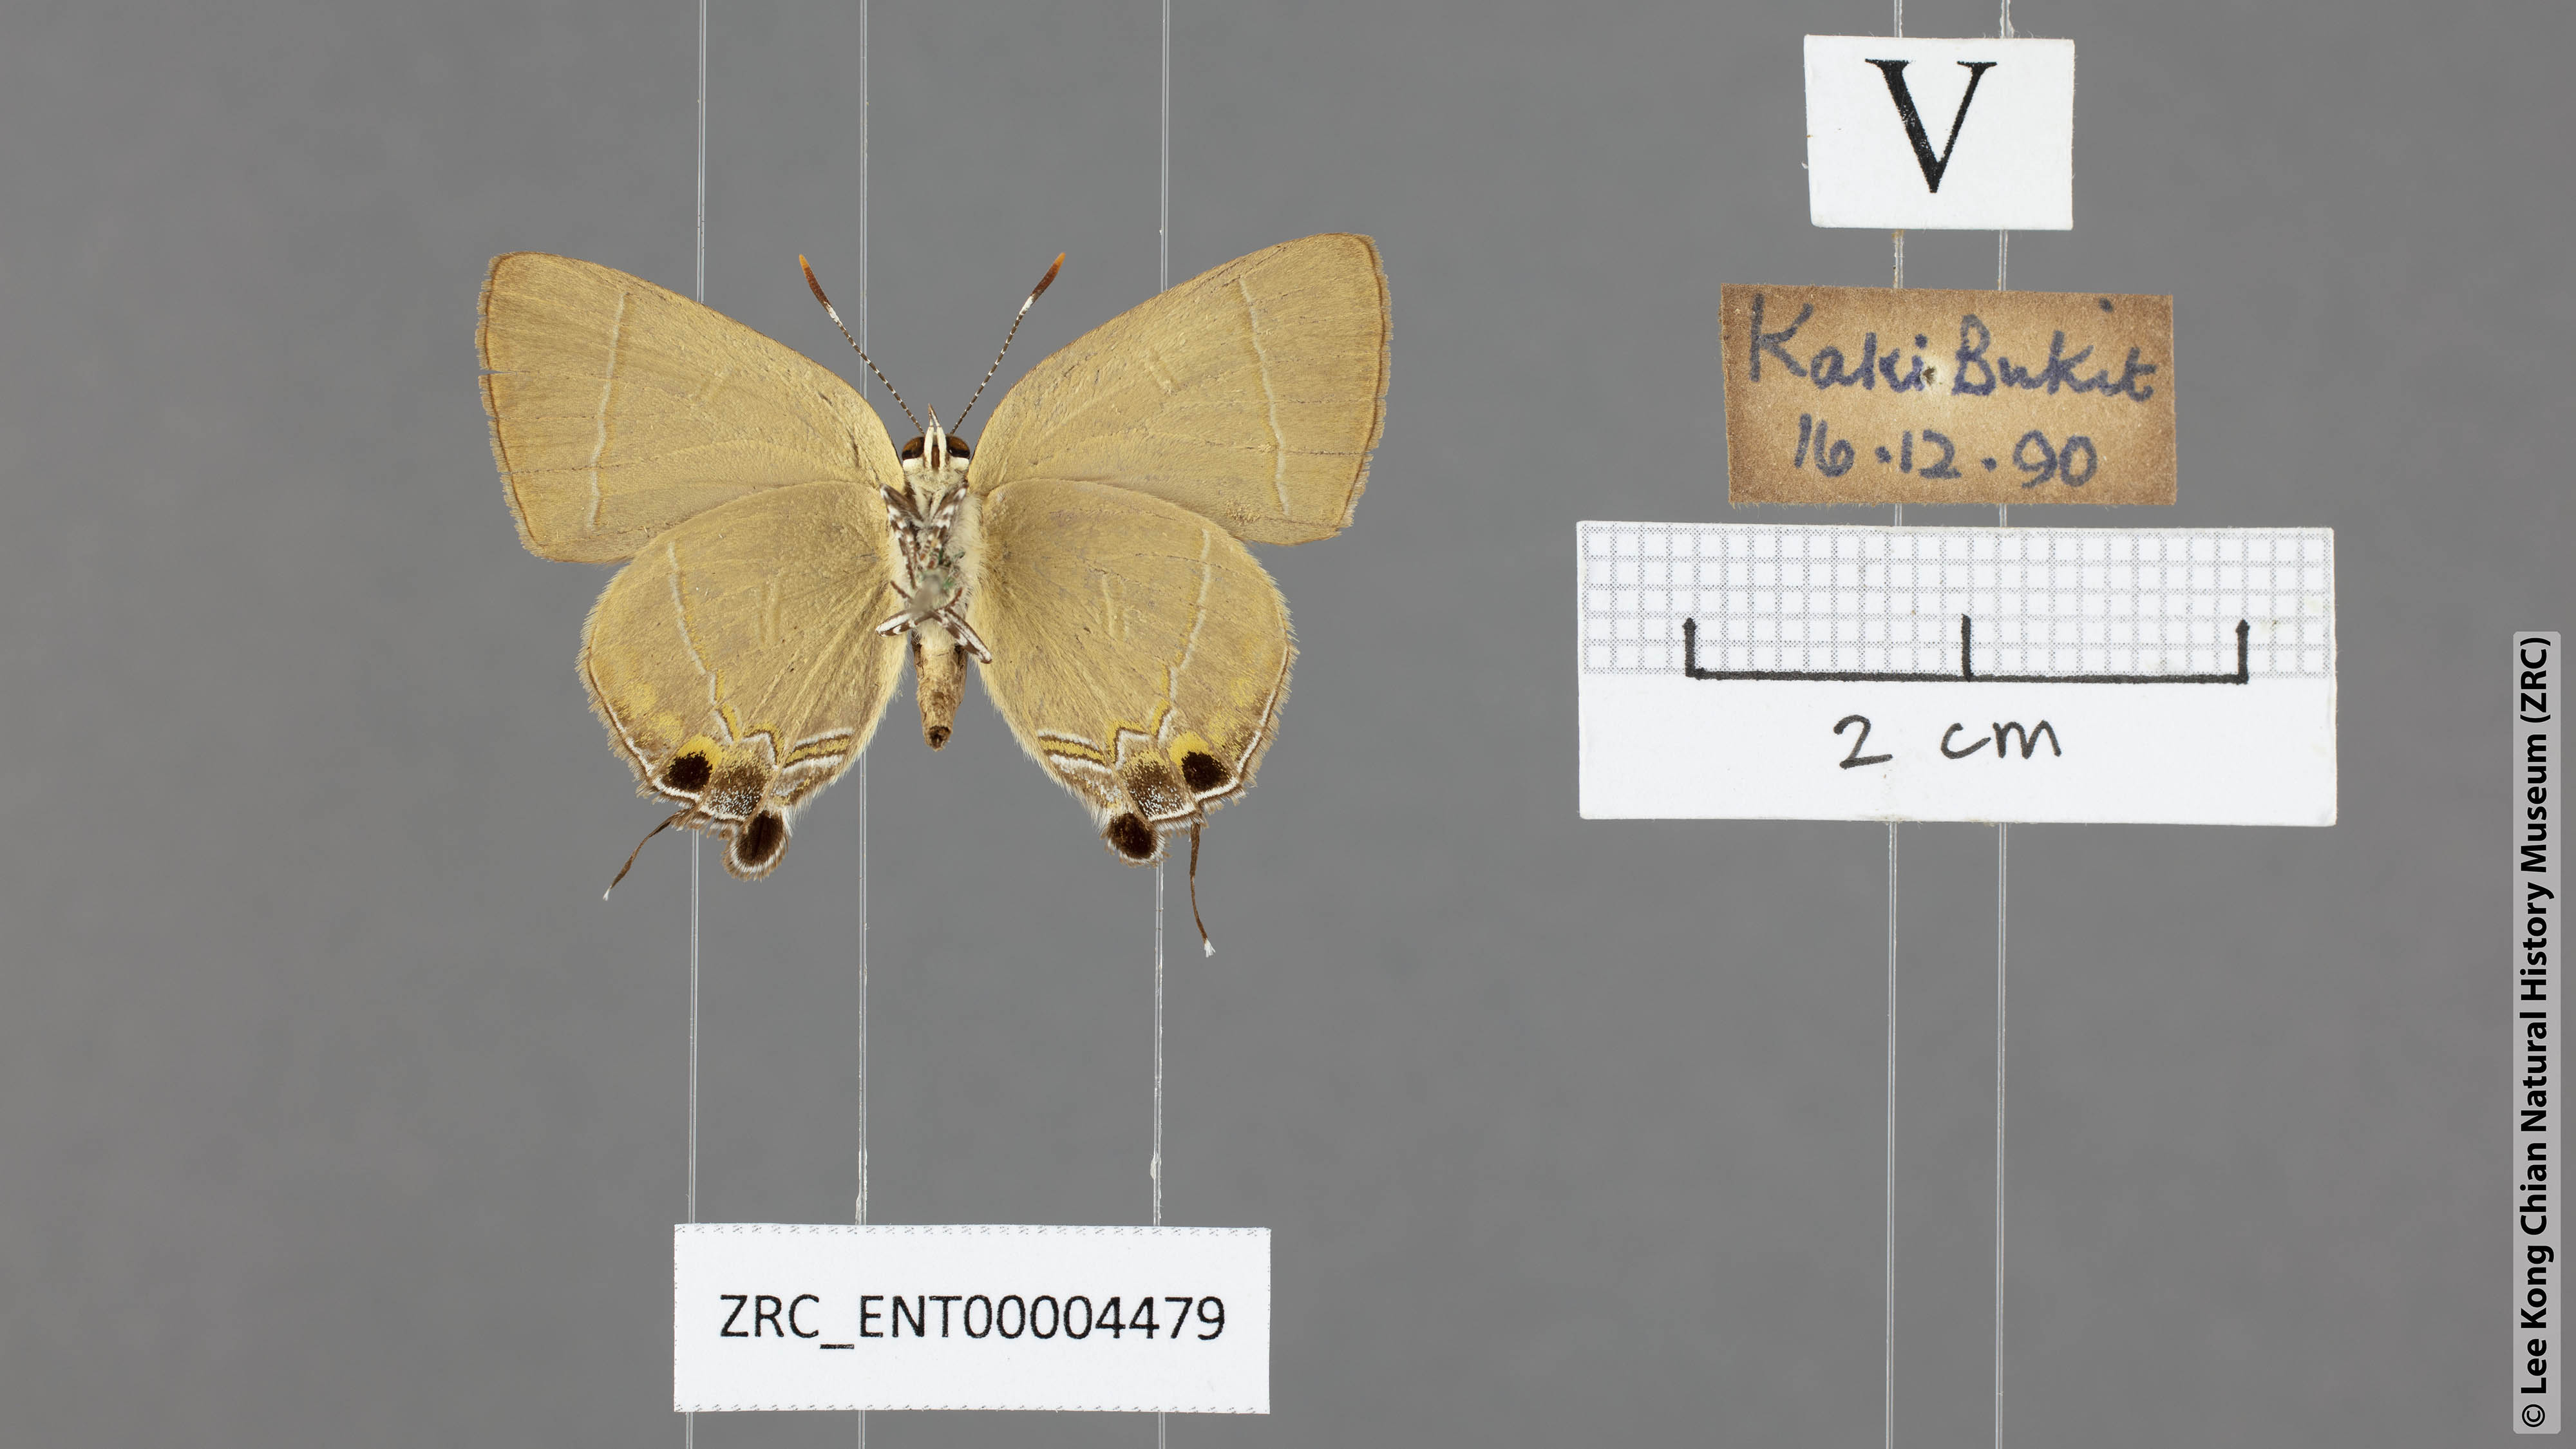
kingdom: Animalia
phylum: Arthropoda
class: Insecta
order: Lepidoptera
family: Lycaenidae
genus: Rapala
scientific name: Rapala dieneces
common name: Scarlet flash
